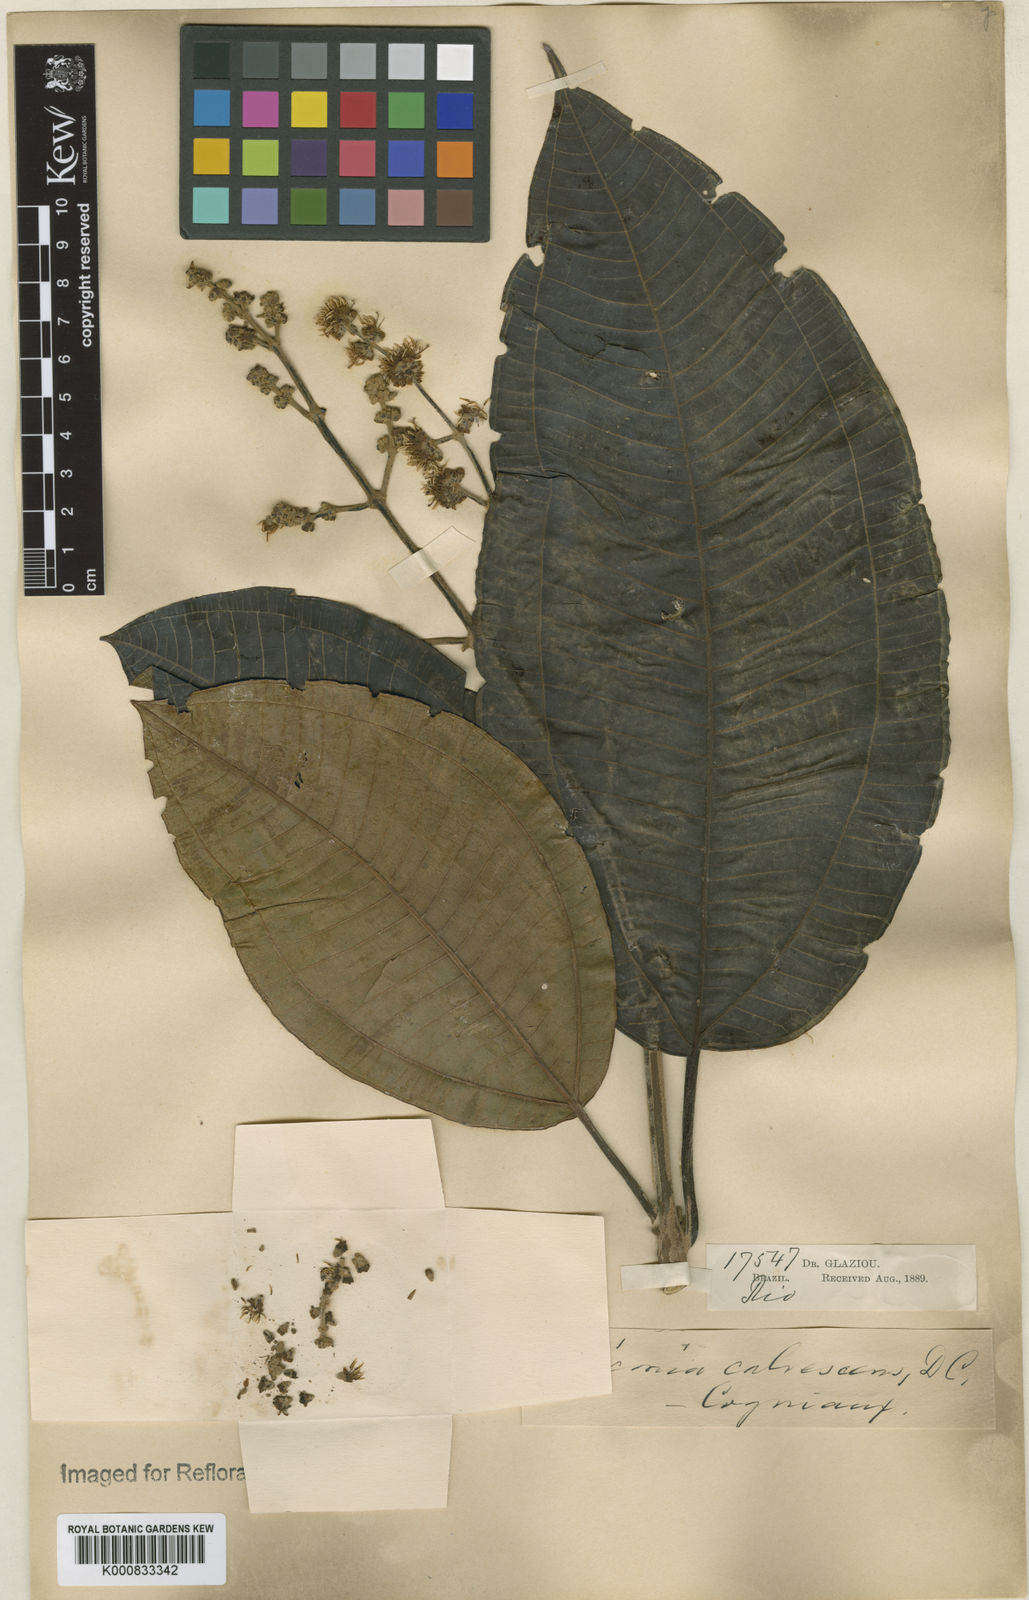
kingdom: Plantae
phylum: Tracheophyta
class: Magnoliopsida
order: Myrtales
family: Melastomataceae
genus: Miconia
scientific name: Miconia calvescens
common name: Purple plague
